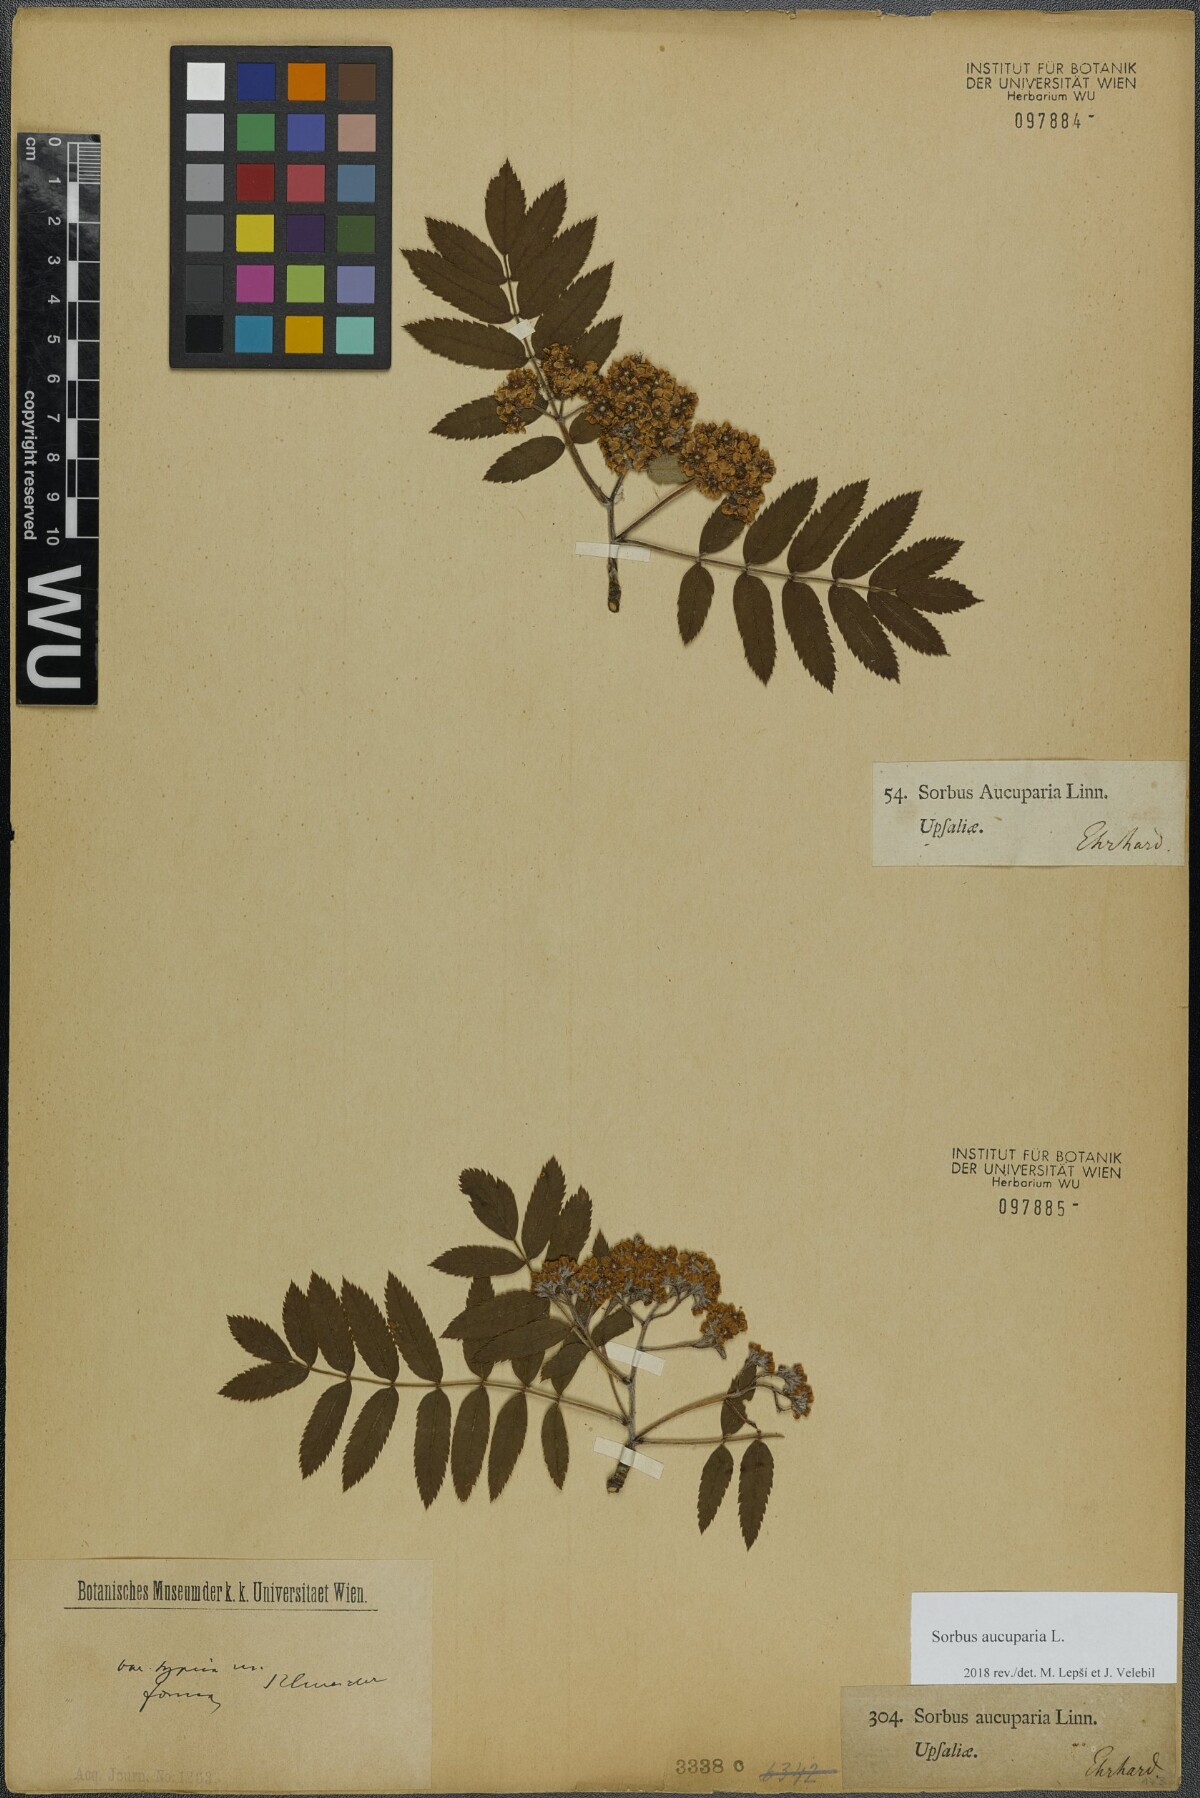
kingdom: Plantae
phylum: Tracheophyta
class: Magnoliopsida
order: Rosales
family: Rosaceae
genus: Sorbus
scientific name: Sorbus aucuparia
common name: Rowan
